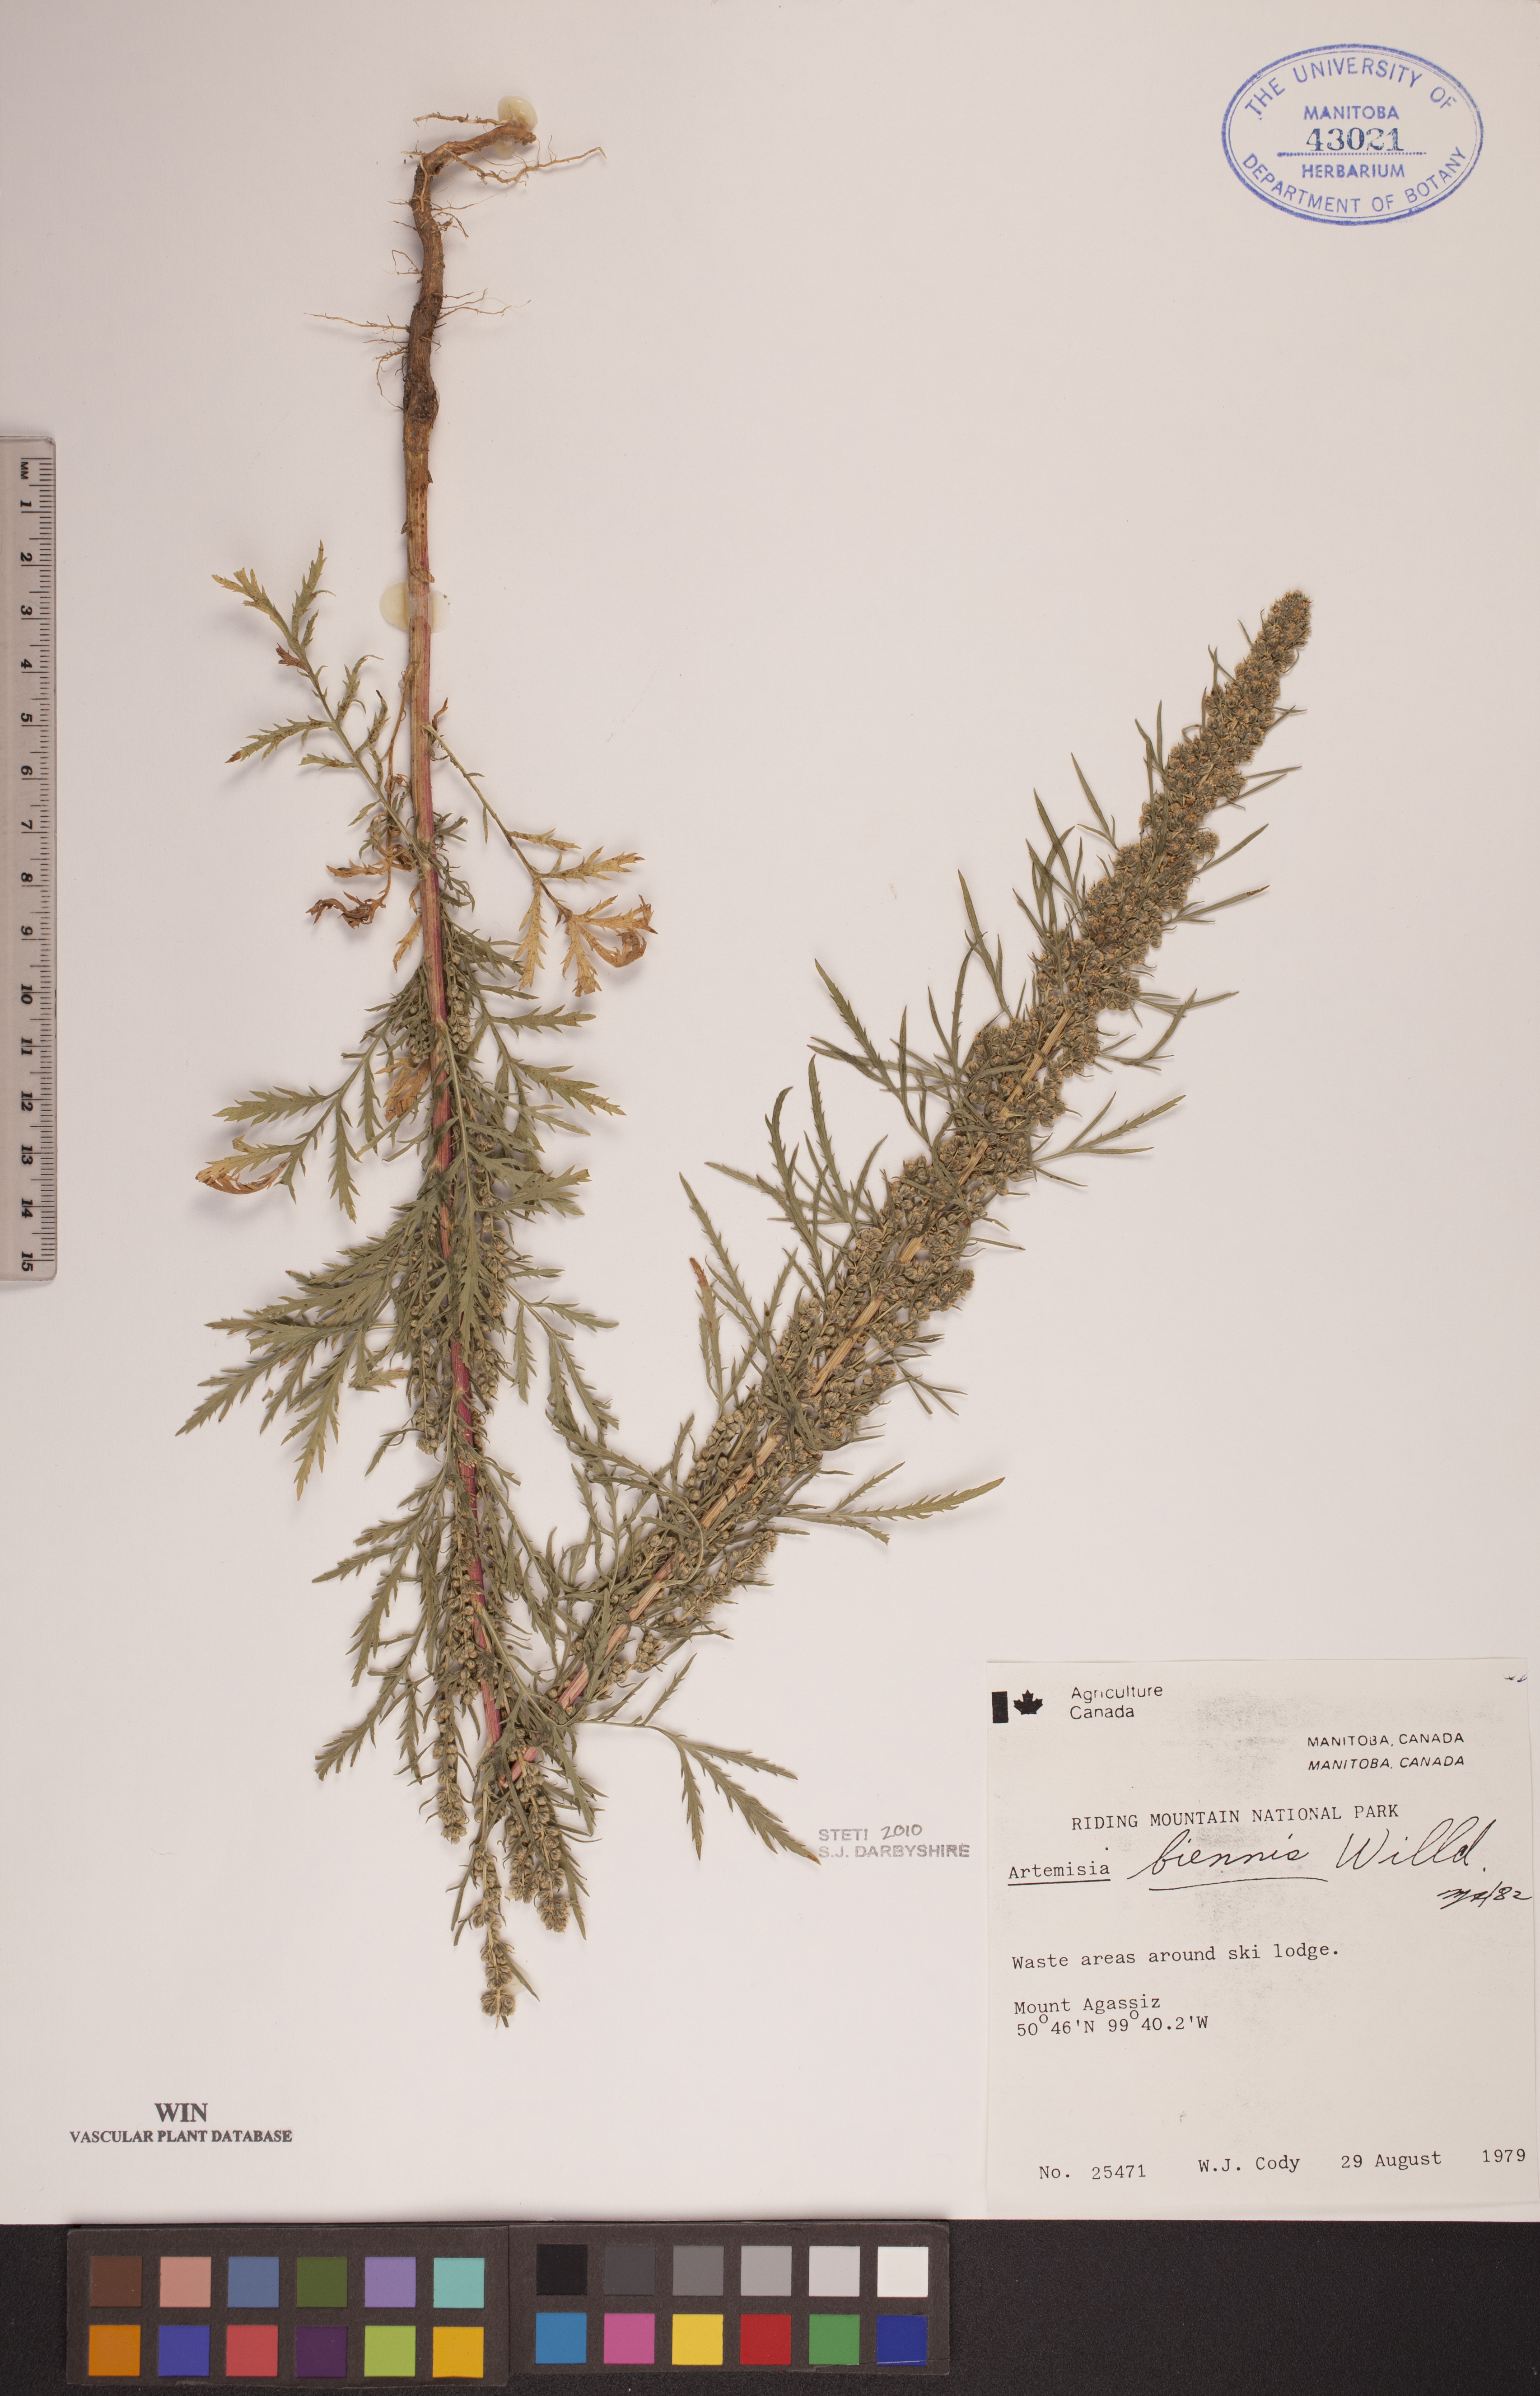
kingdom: Plantae
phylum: Tracheophyta
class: Magnoliopsida
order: Asterales
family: Asteraceae
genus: Artemisia
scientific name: Artemisia biennis
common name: Biennial wormwood
